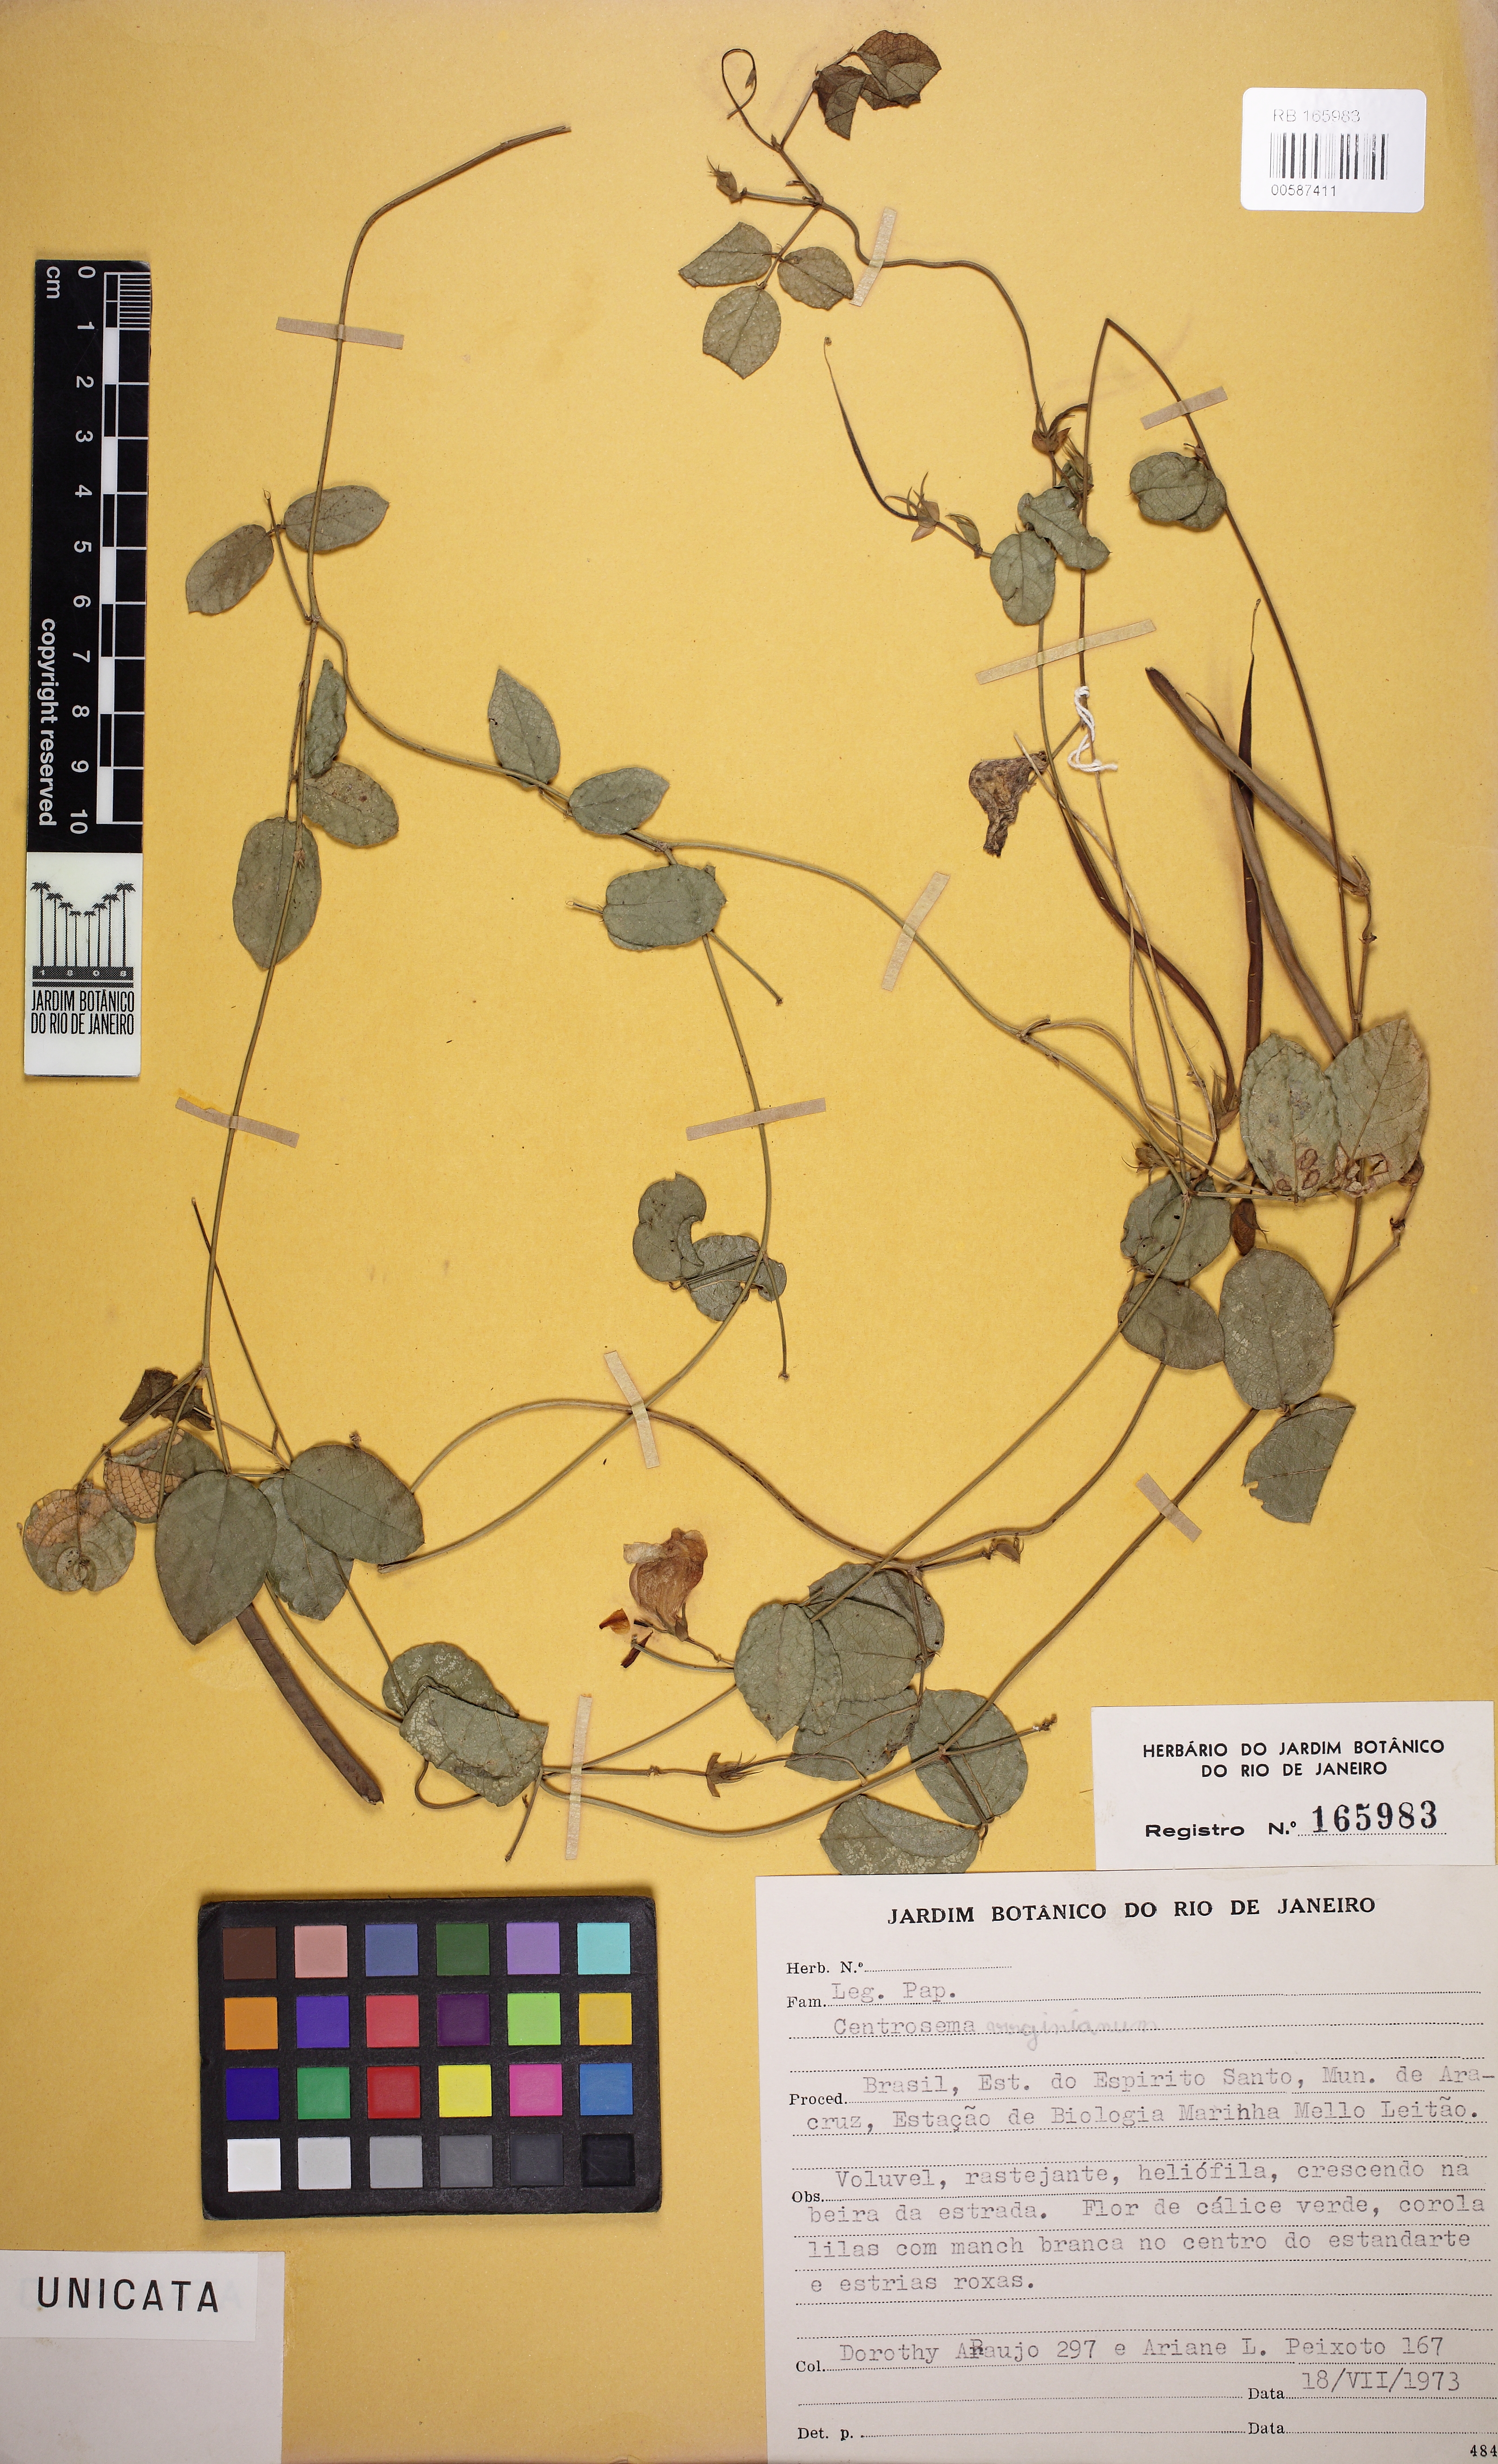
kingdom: Plantae
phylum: Tracheophyta
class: Magnoliopsida
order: Fabales
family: Fabaceae
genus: Centrosema
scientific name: Centrosema virginianum
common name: Butterfly-pea
